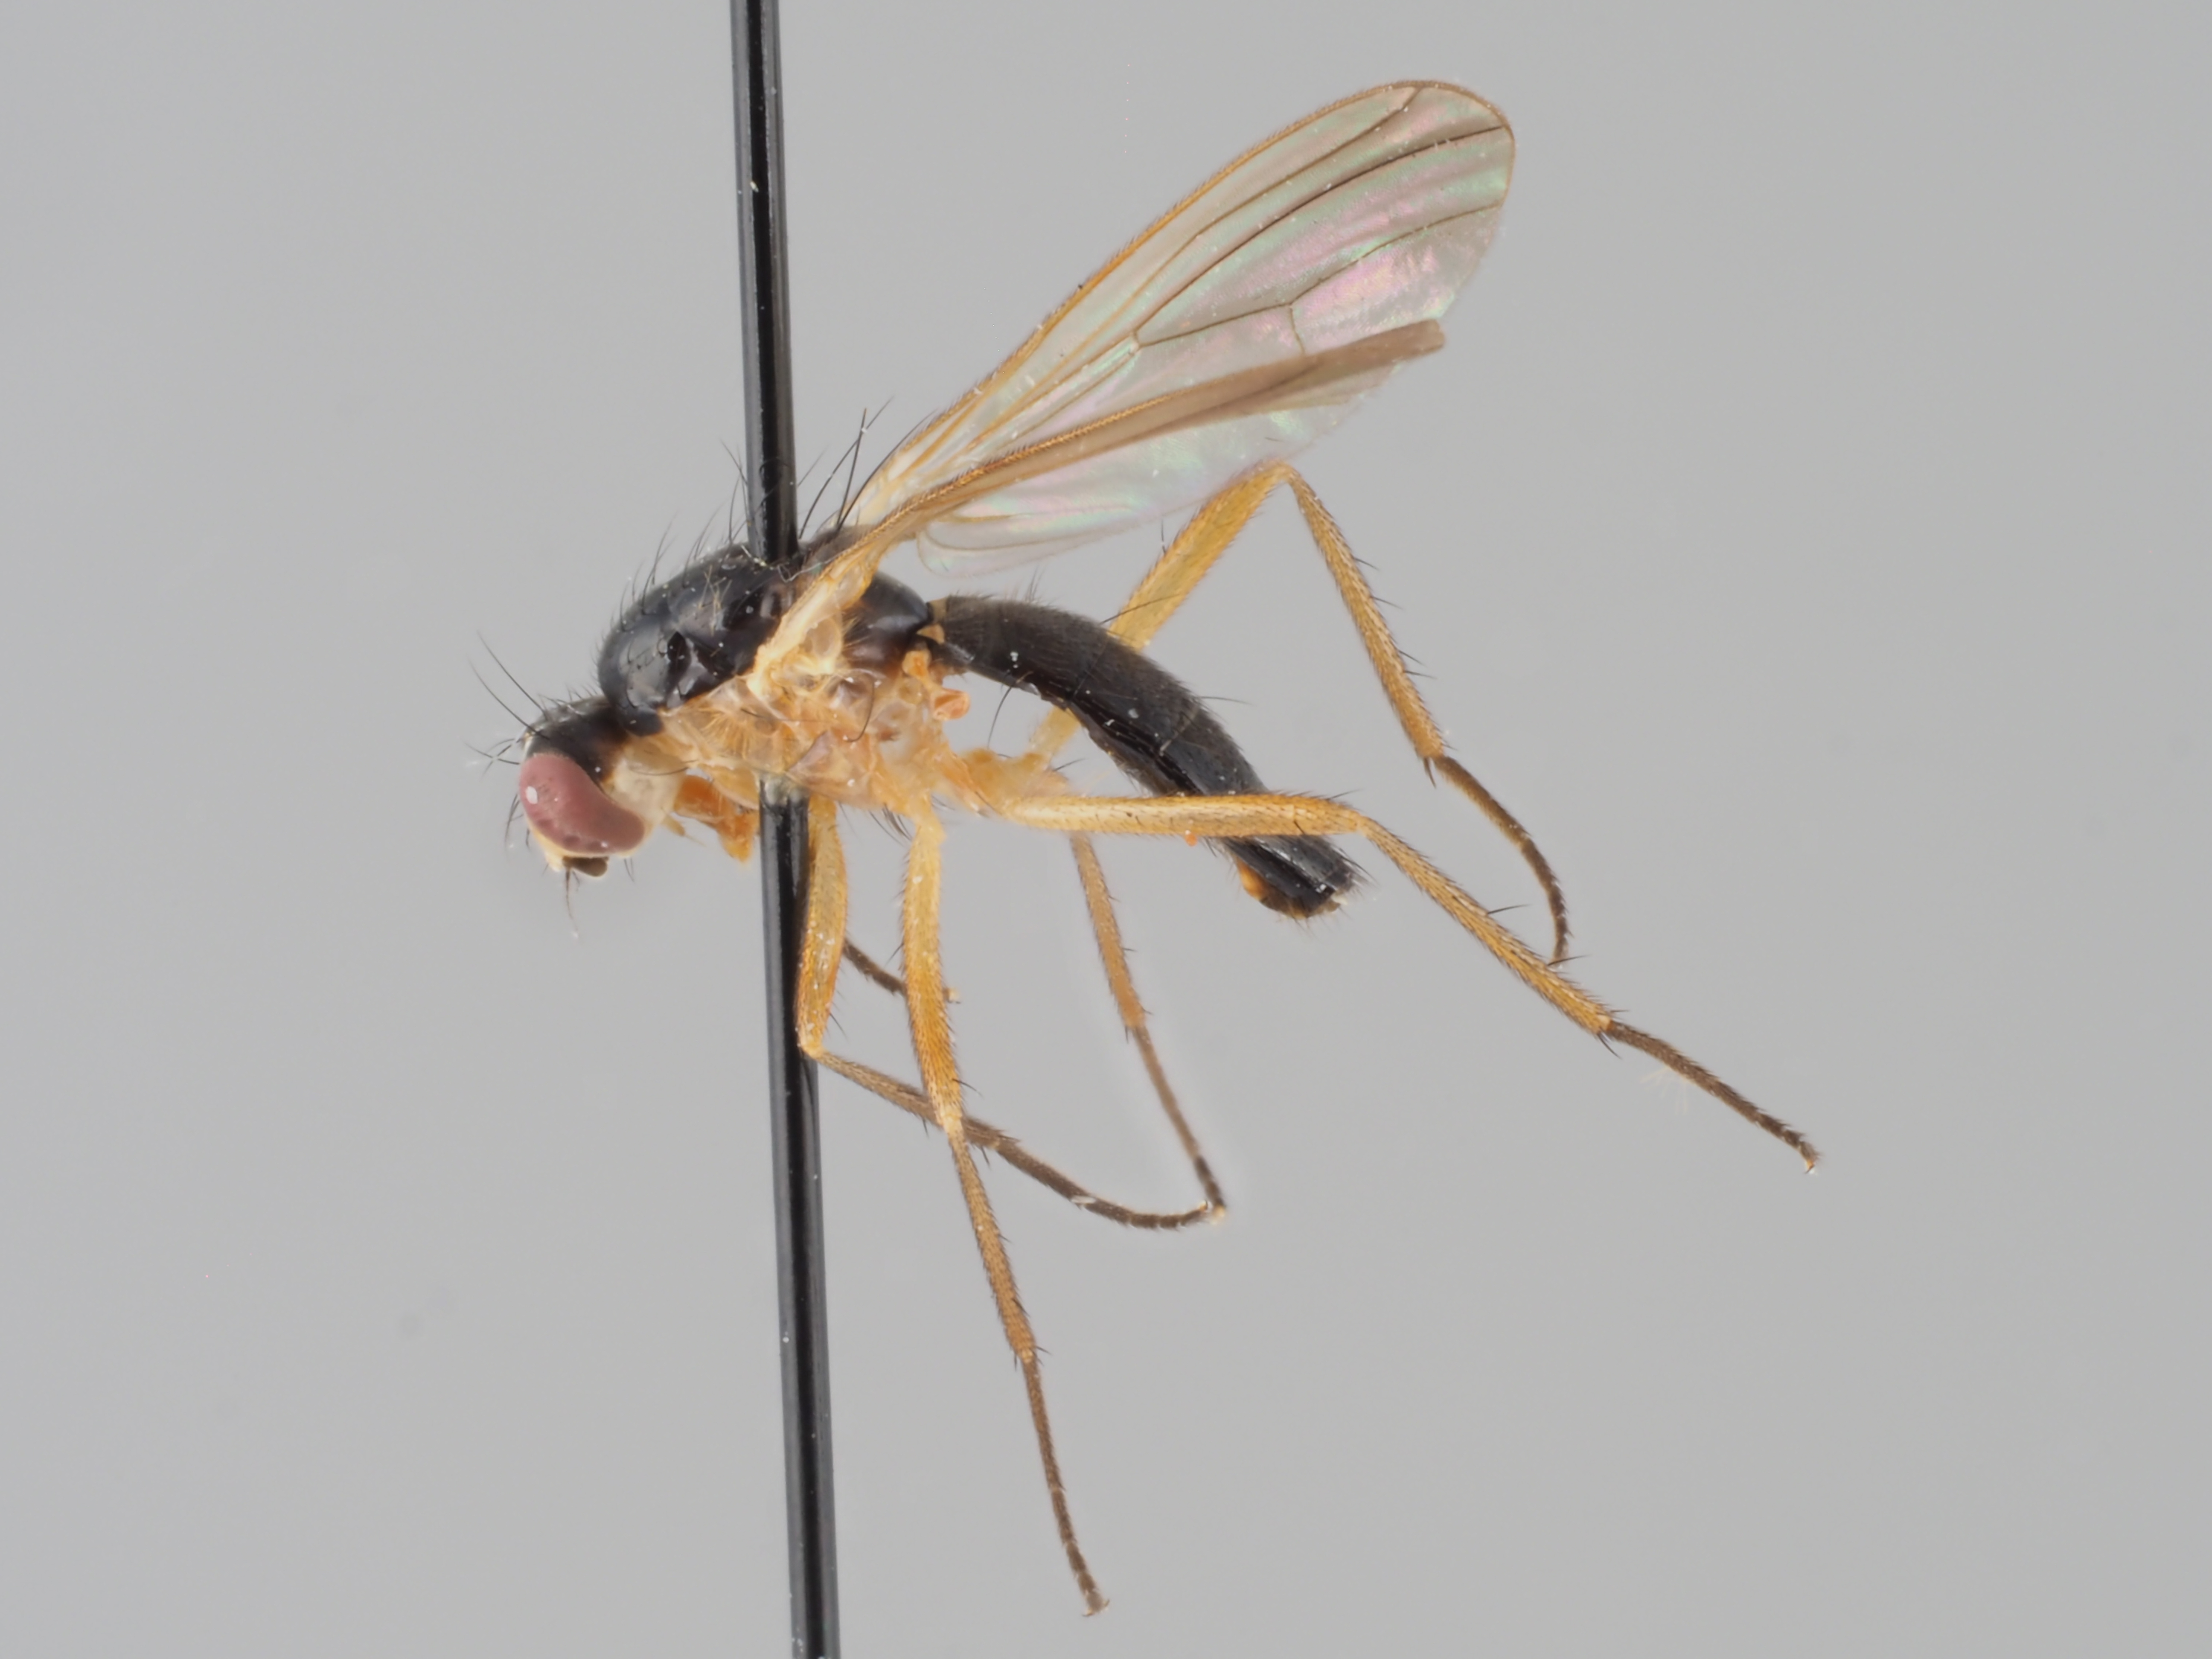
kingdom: Animalia
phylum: Arthropoda
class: Insecta
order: Diptera
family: Scathophagidae
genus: Americina
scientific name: Americina media
